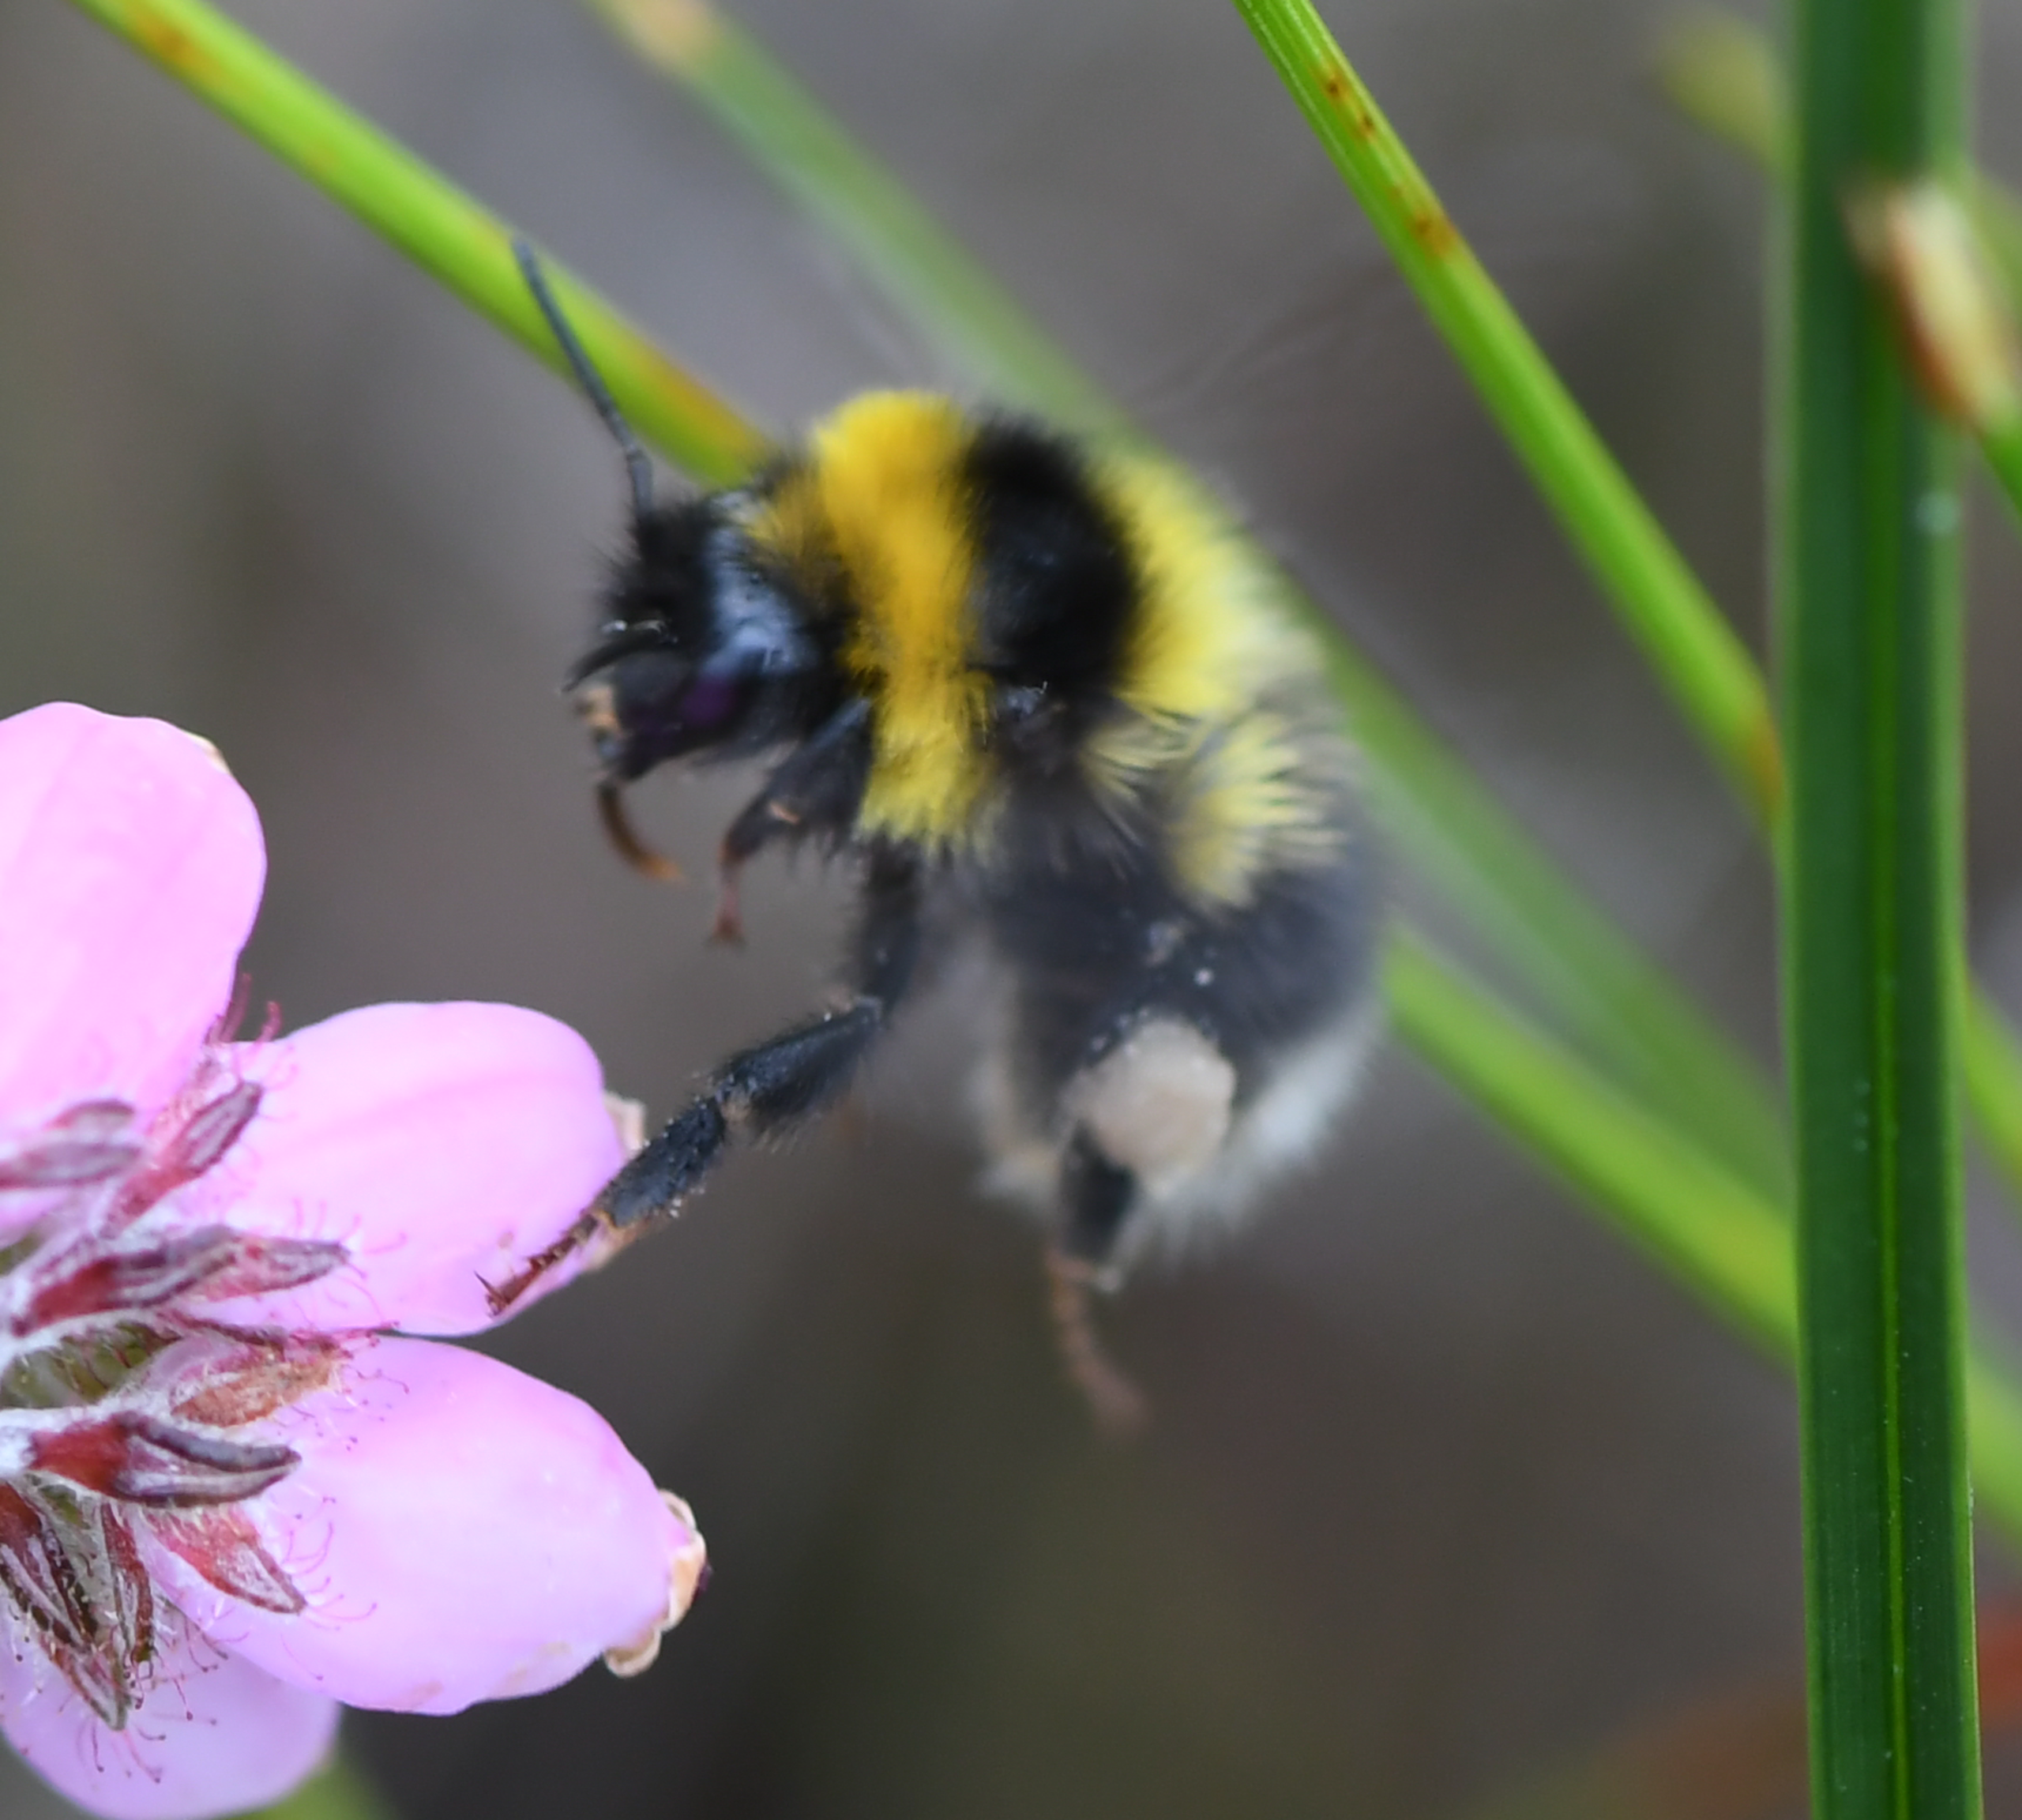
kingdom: Animalia
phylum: Arthropoda
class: Insecta
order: Hymenoptera
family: Apidae
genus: Bombus
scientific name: Bombus jonellus
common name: Hedehumle
